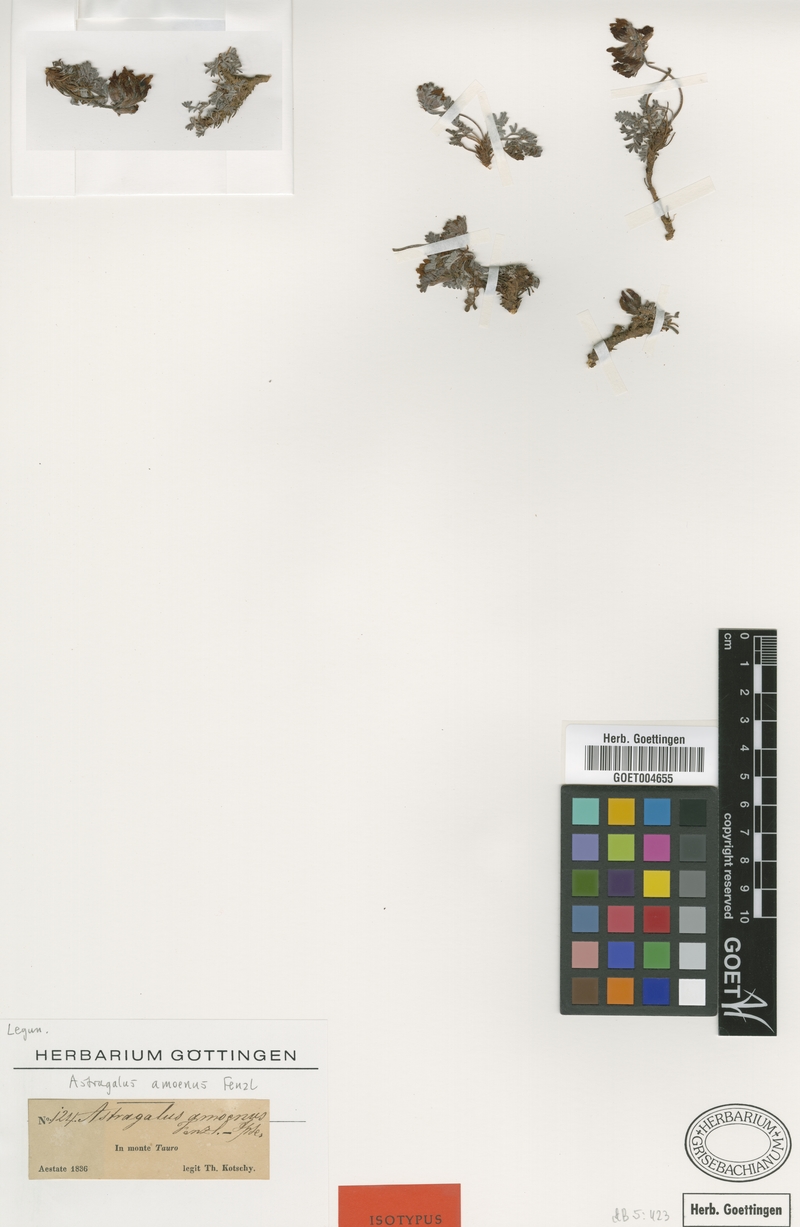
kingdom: Plantae
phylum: Tracheophyta
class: Magnoliopsida
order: Fabales
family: Fabaceae
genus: Astragalus
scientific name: Astragalus amoenus
